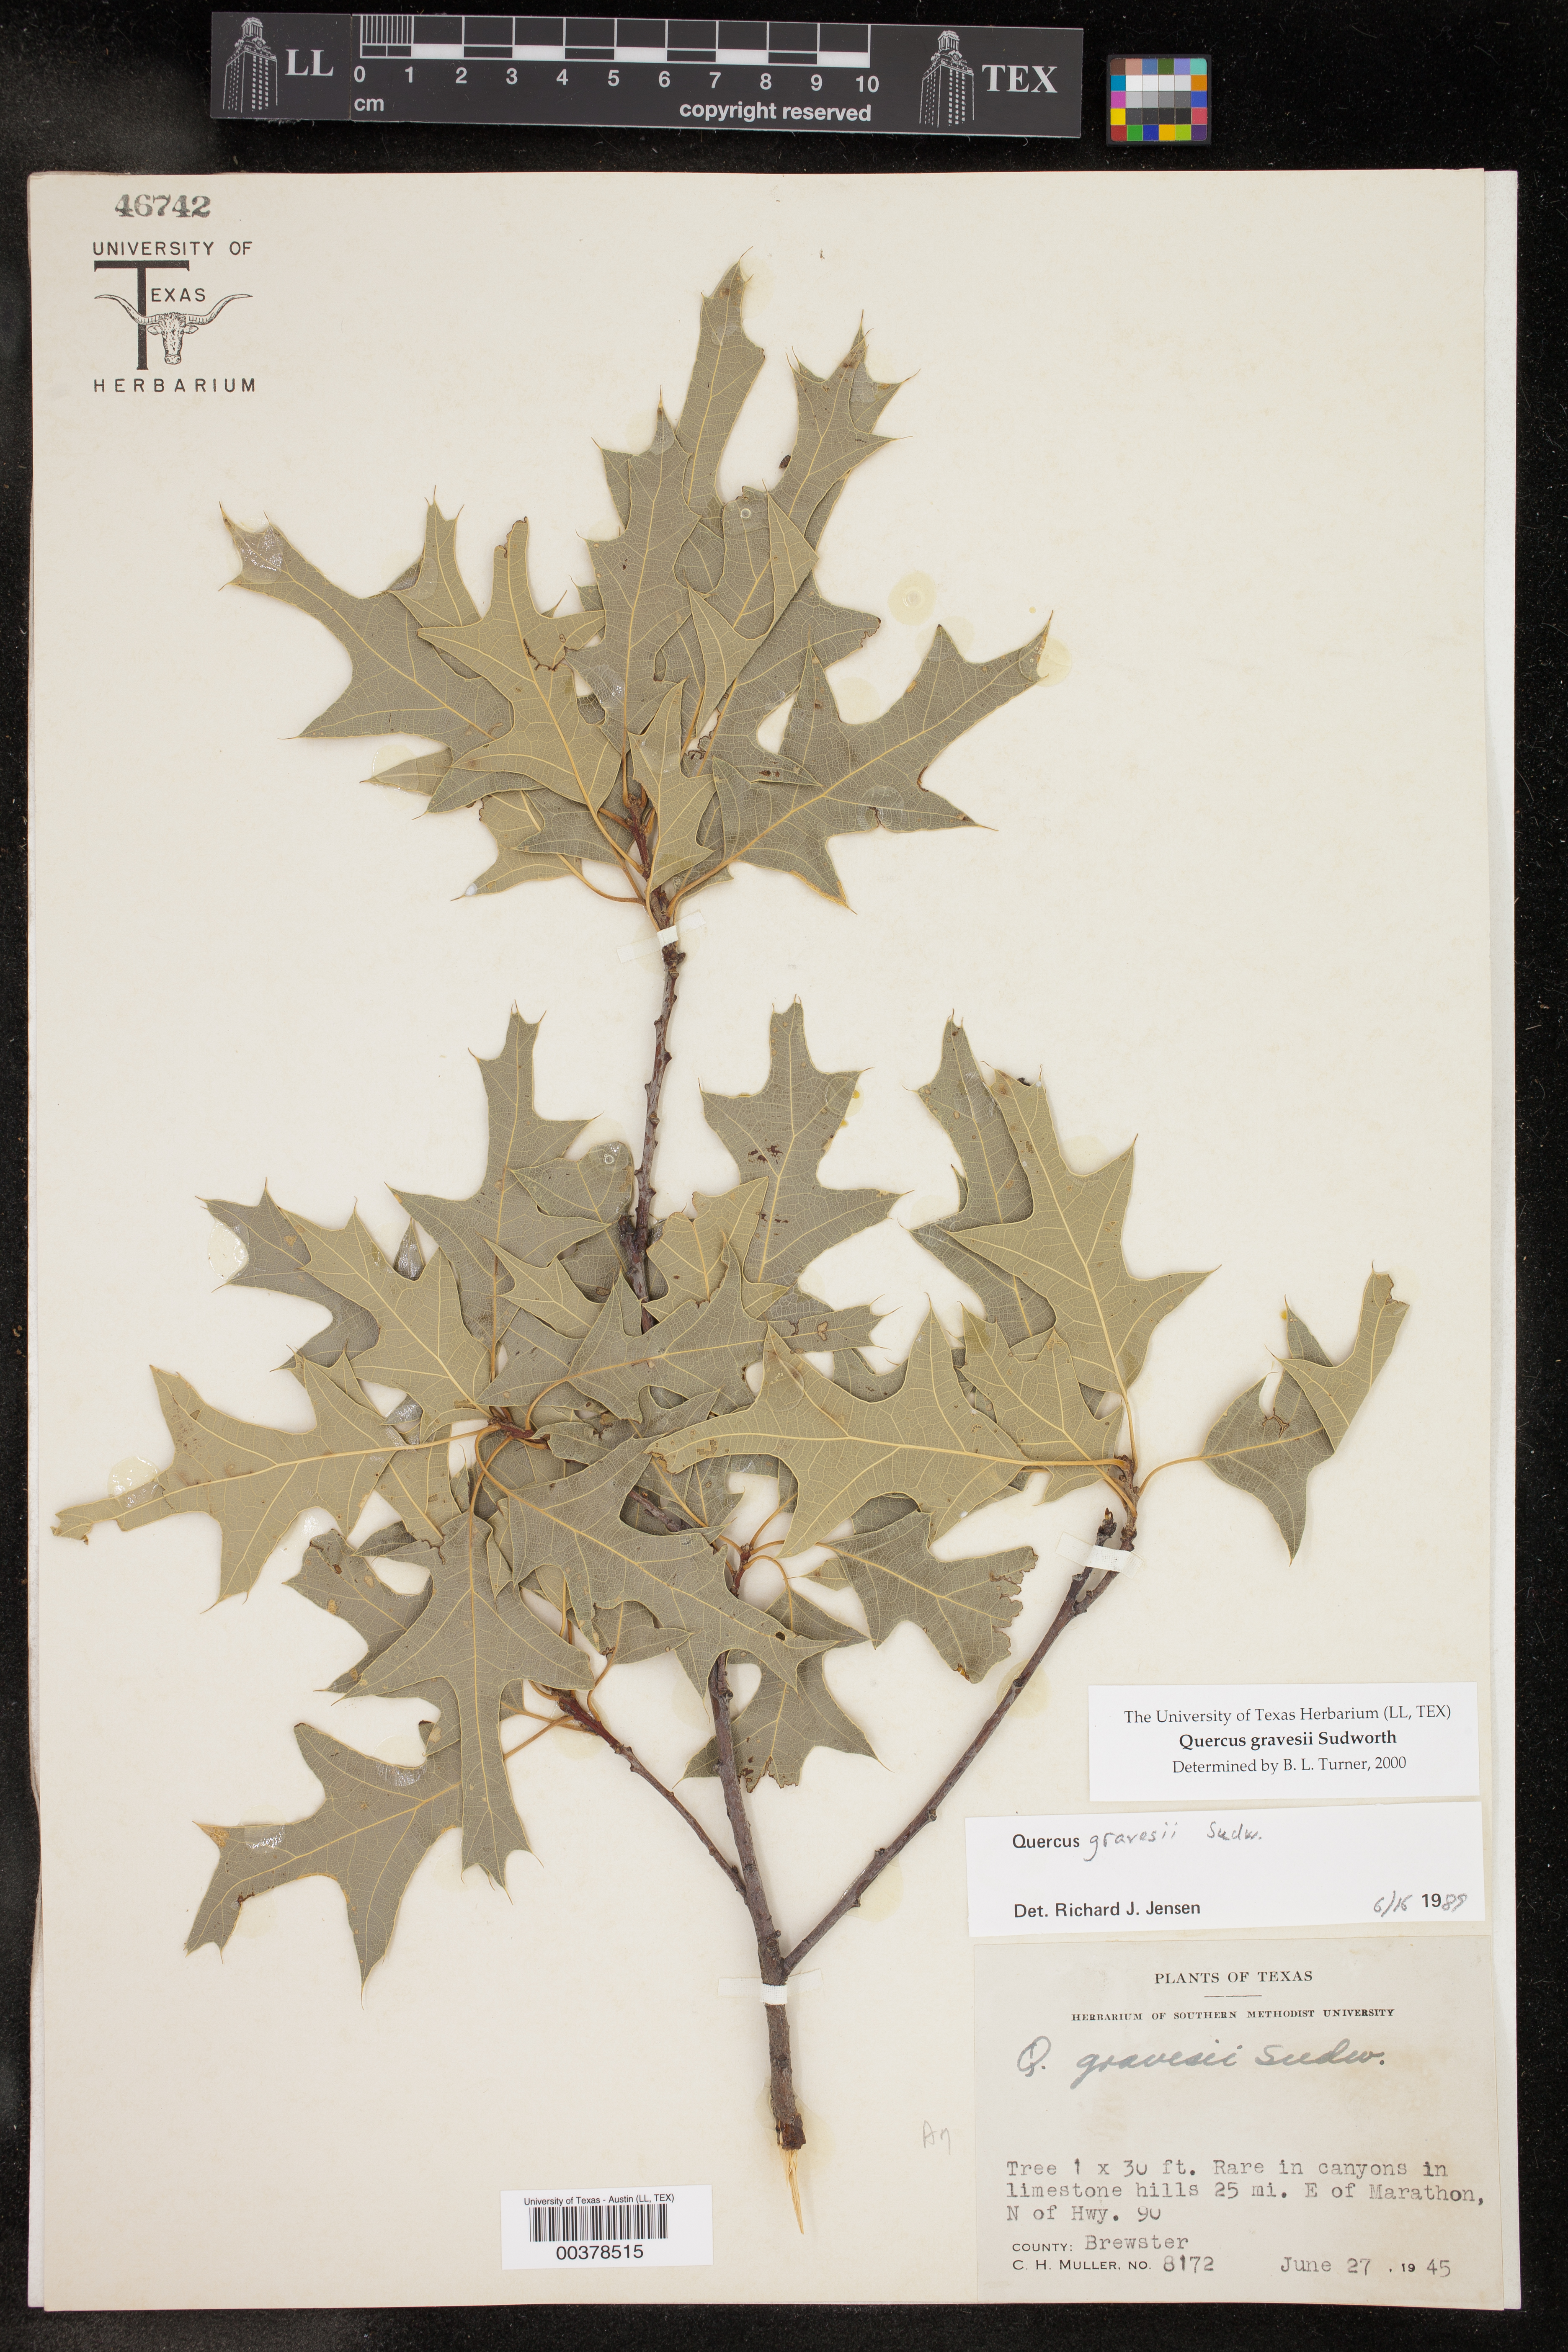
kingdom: Plantae
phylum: Tracheophyta
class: Magnoliopsida
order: Fagales
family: Fagaceae
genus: Quercus
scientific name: Quercus gravesii
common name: Chisos red oak
